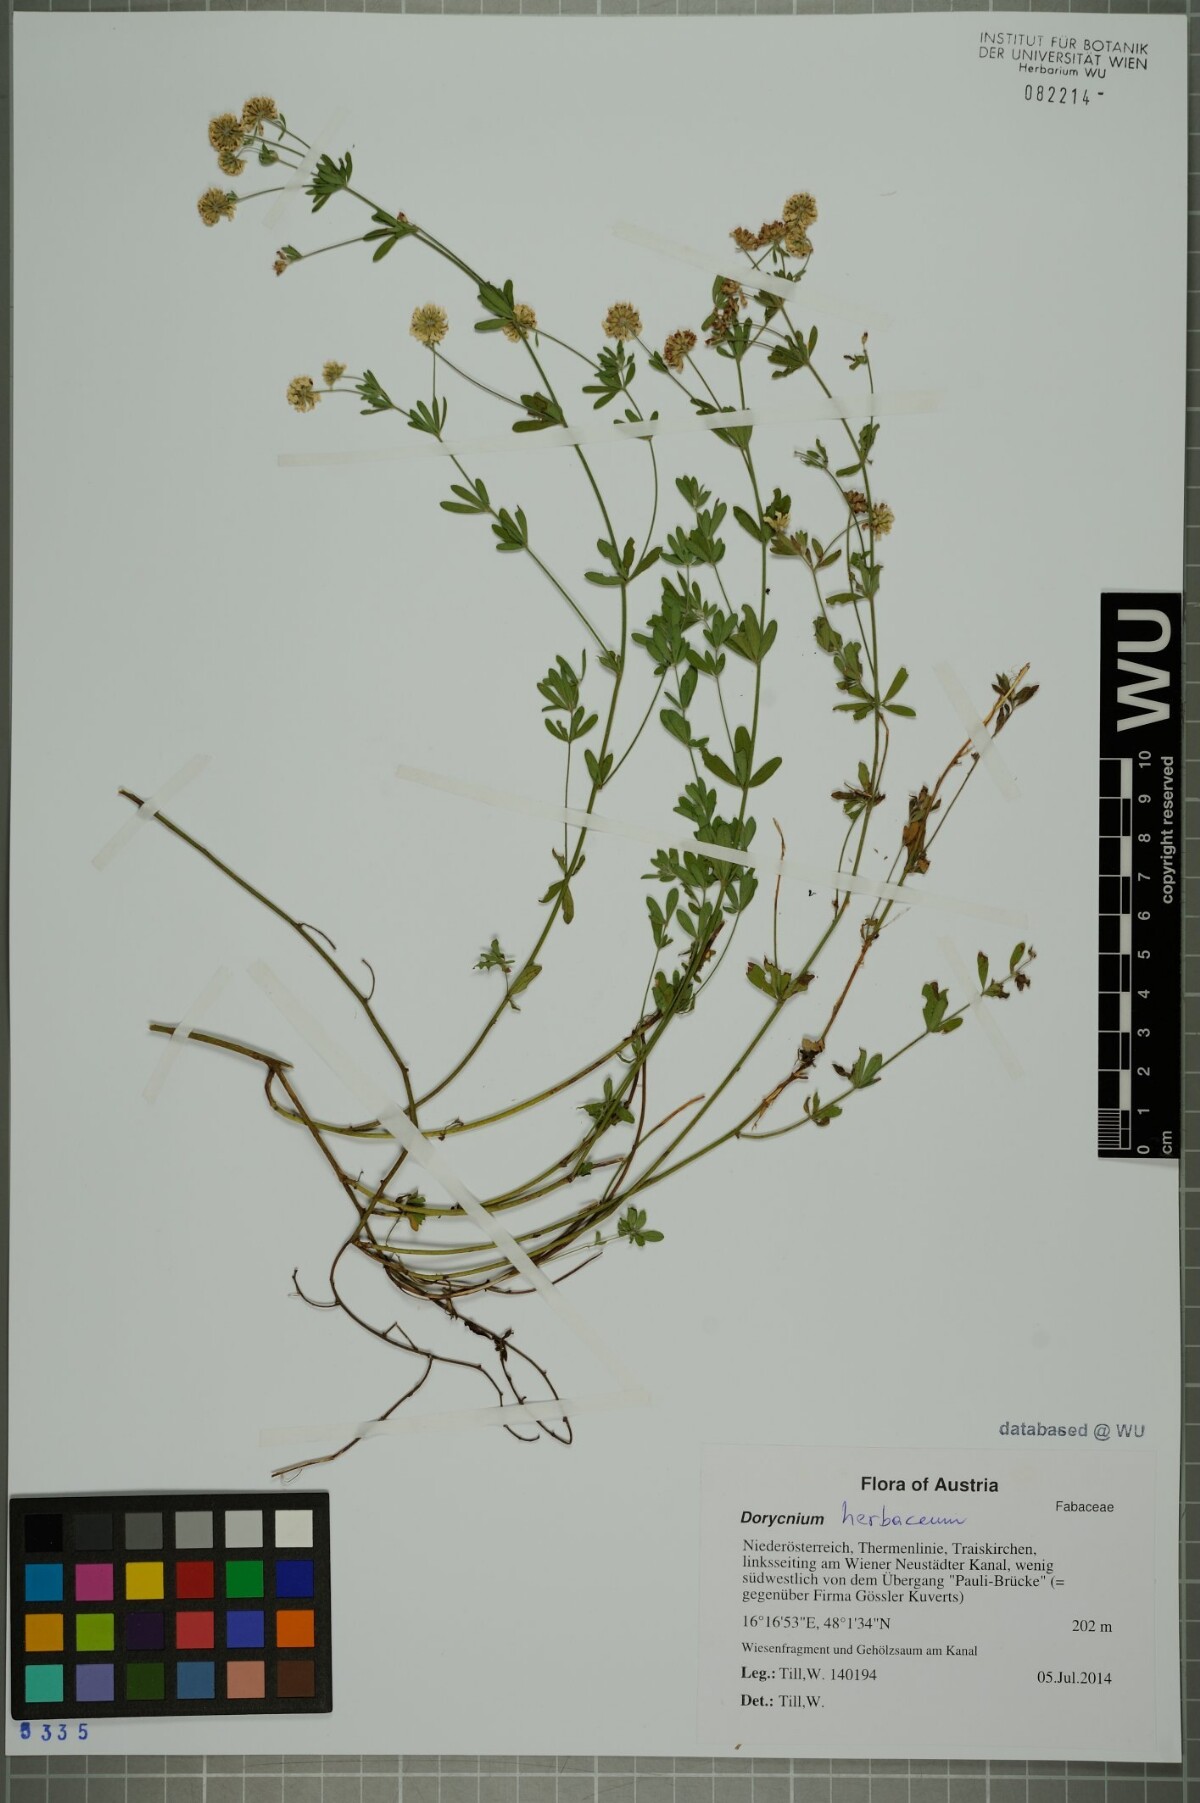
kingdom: Plantae
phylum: Tracheophyta
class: Magnoliopsida
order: Fabales
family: Fabaceae
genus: Lotus
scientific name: Lotus herbaceus
